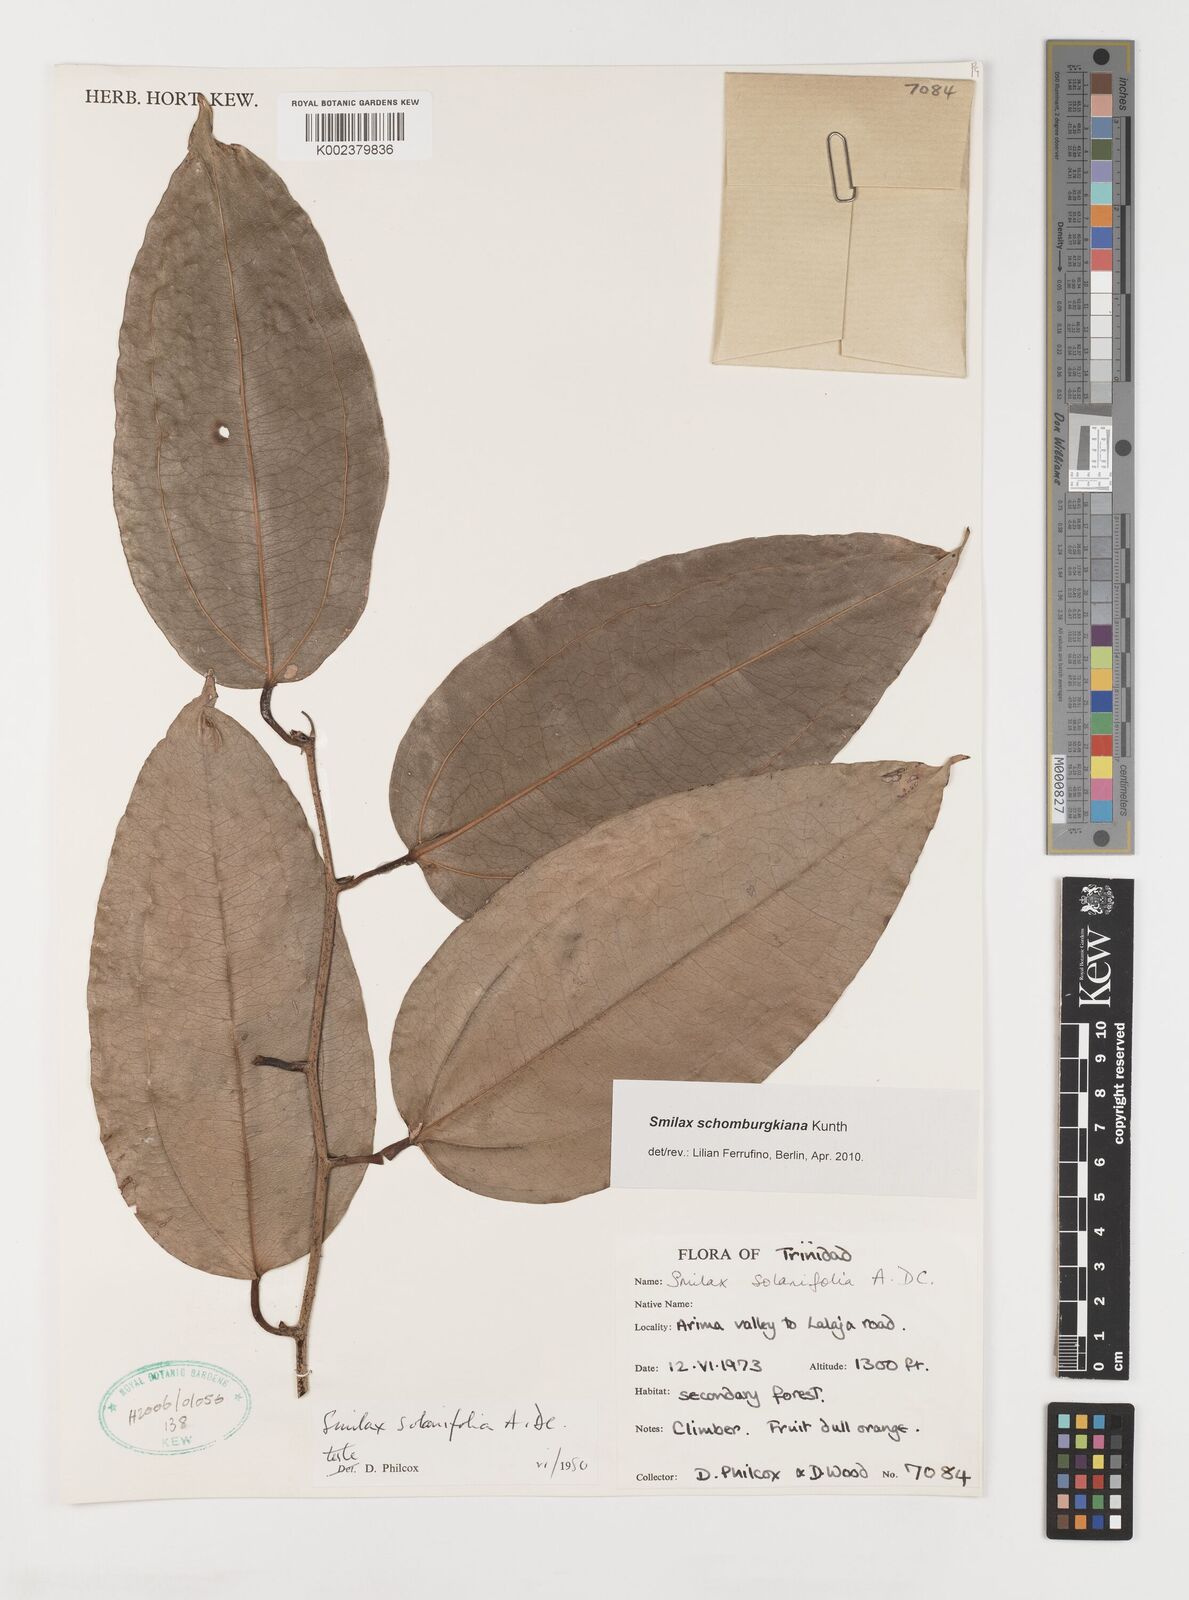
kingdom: Plantae
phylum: Tracheophyta
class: Liliopsida
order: Liliales
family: Smilacaceae
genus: Smilax
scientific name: Smilax schomburgkiana
